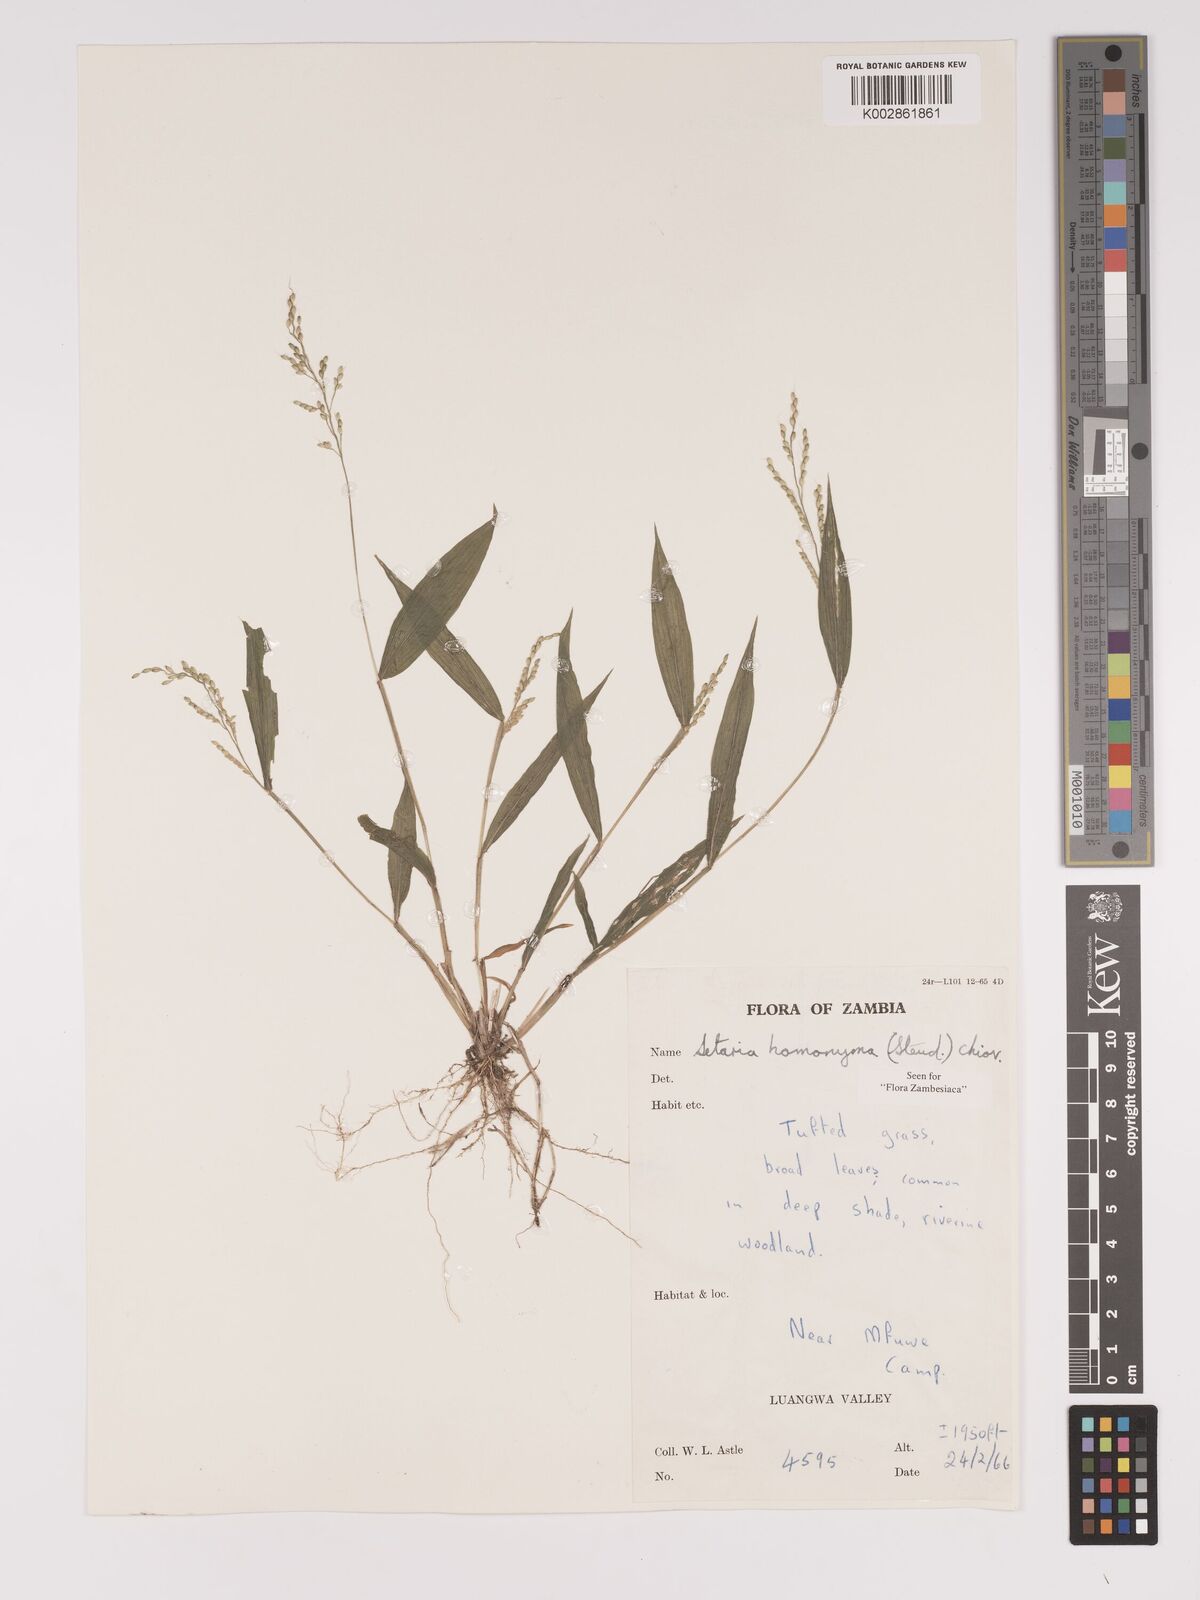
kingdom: Plantae
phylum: Tracheophyta
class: Liliopsida
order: Poales
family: Poaceae
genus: Setaria
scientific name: Setaria homonyma
